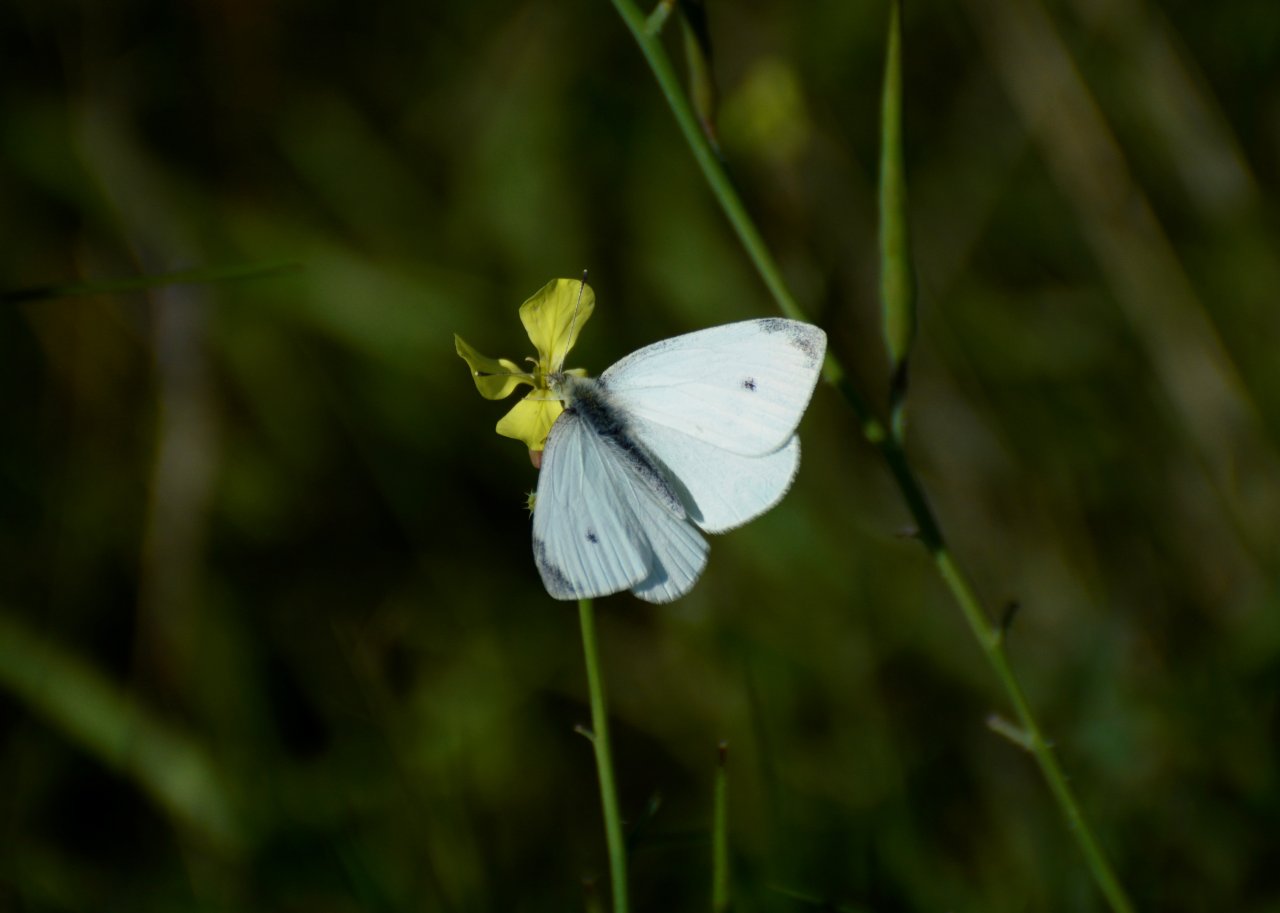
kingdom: Animalia
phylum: Arthropoda
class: Insecta
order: Lepidoptera
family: Pieridae
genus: Pieris
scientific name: Pieris rapae
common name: Cabbage White
